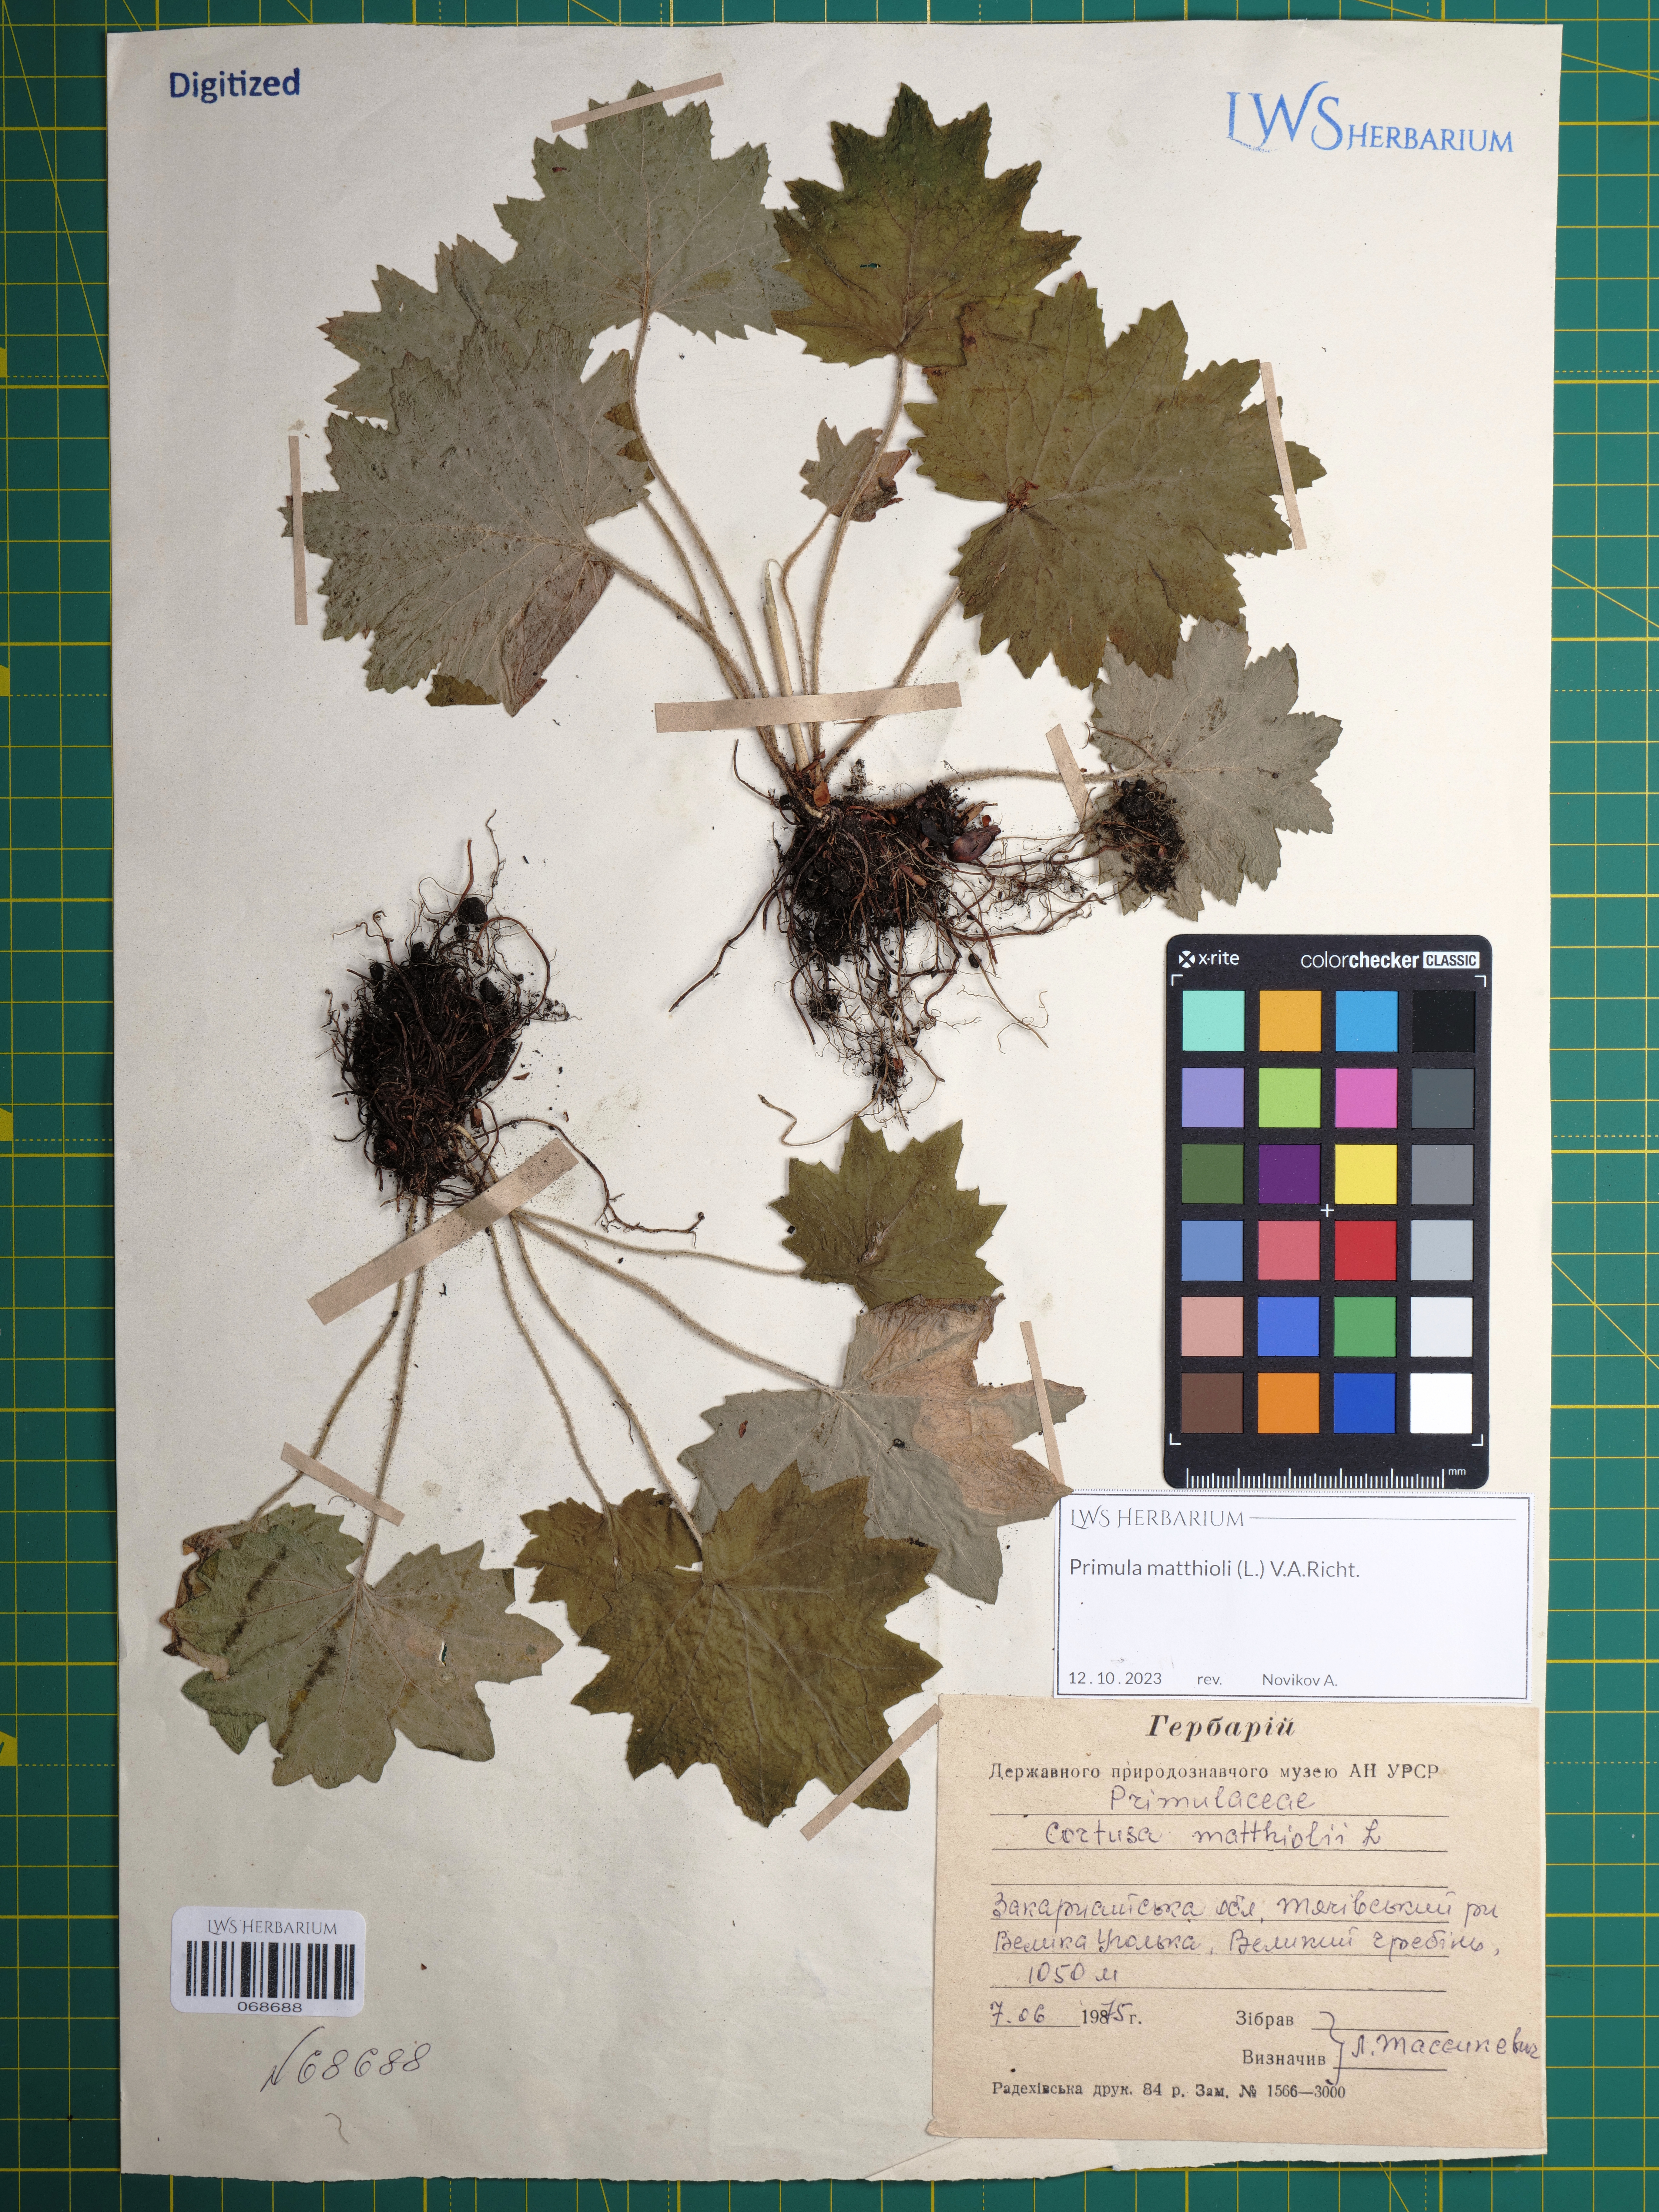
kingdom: Plantae
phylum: Tracheophyta
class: Magnoliopsida
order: Ericales
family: Primulaceae
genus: Primula
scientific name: Primula matthioli
